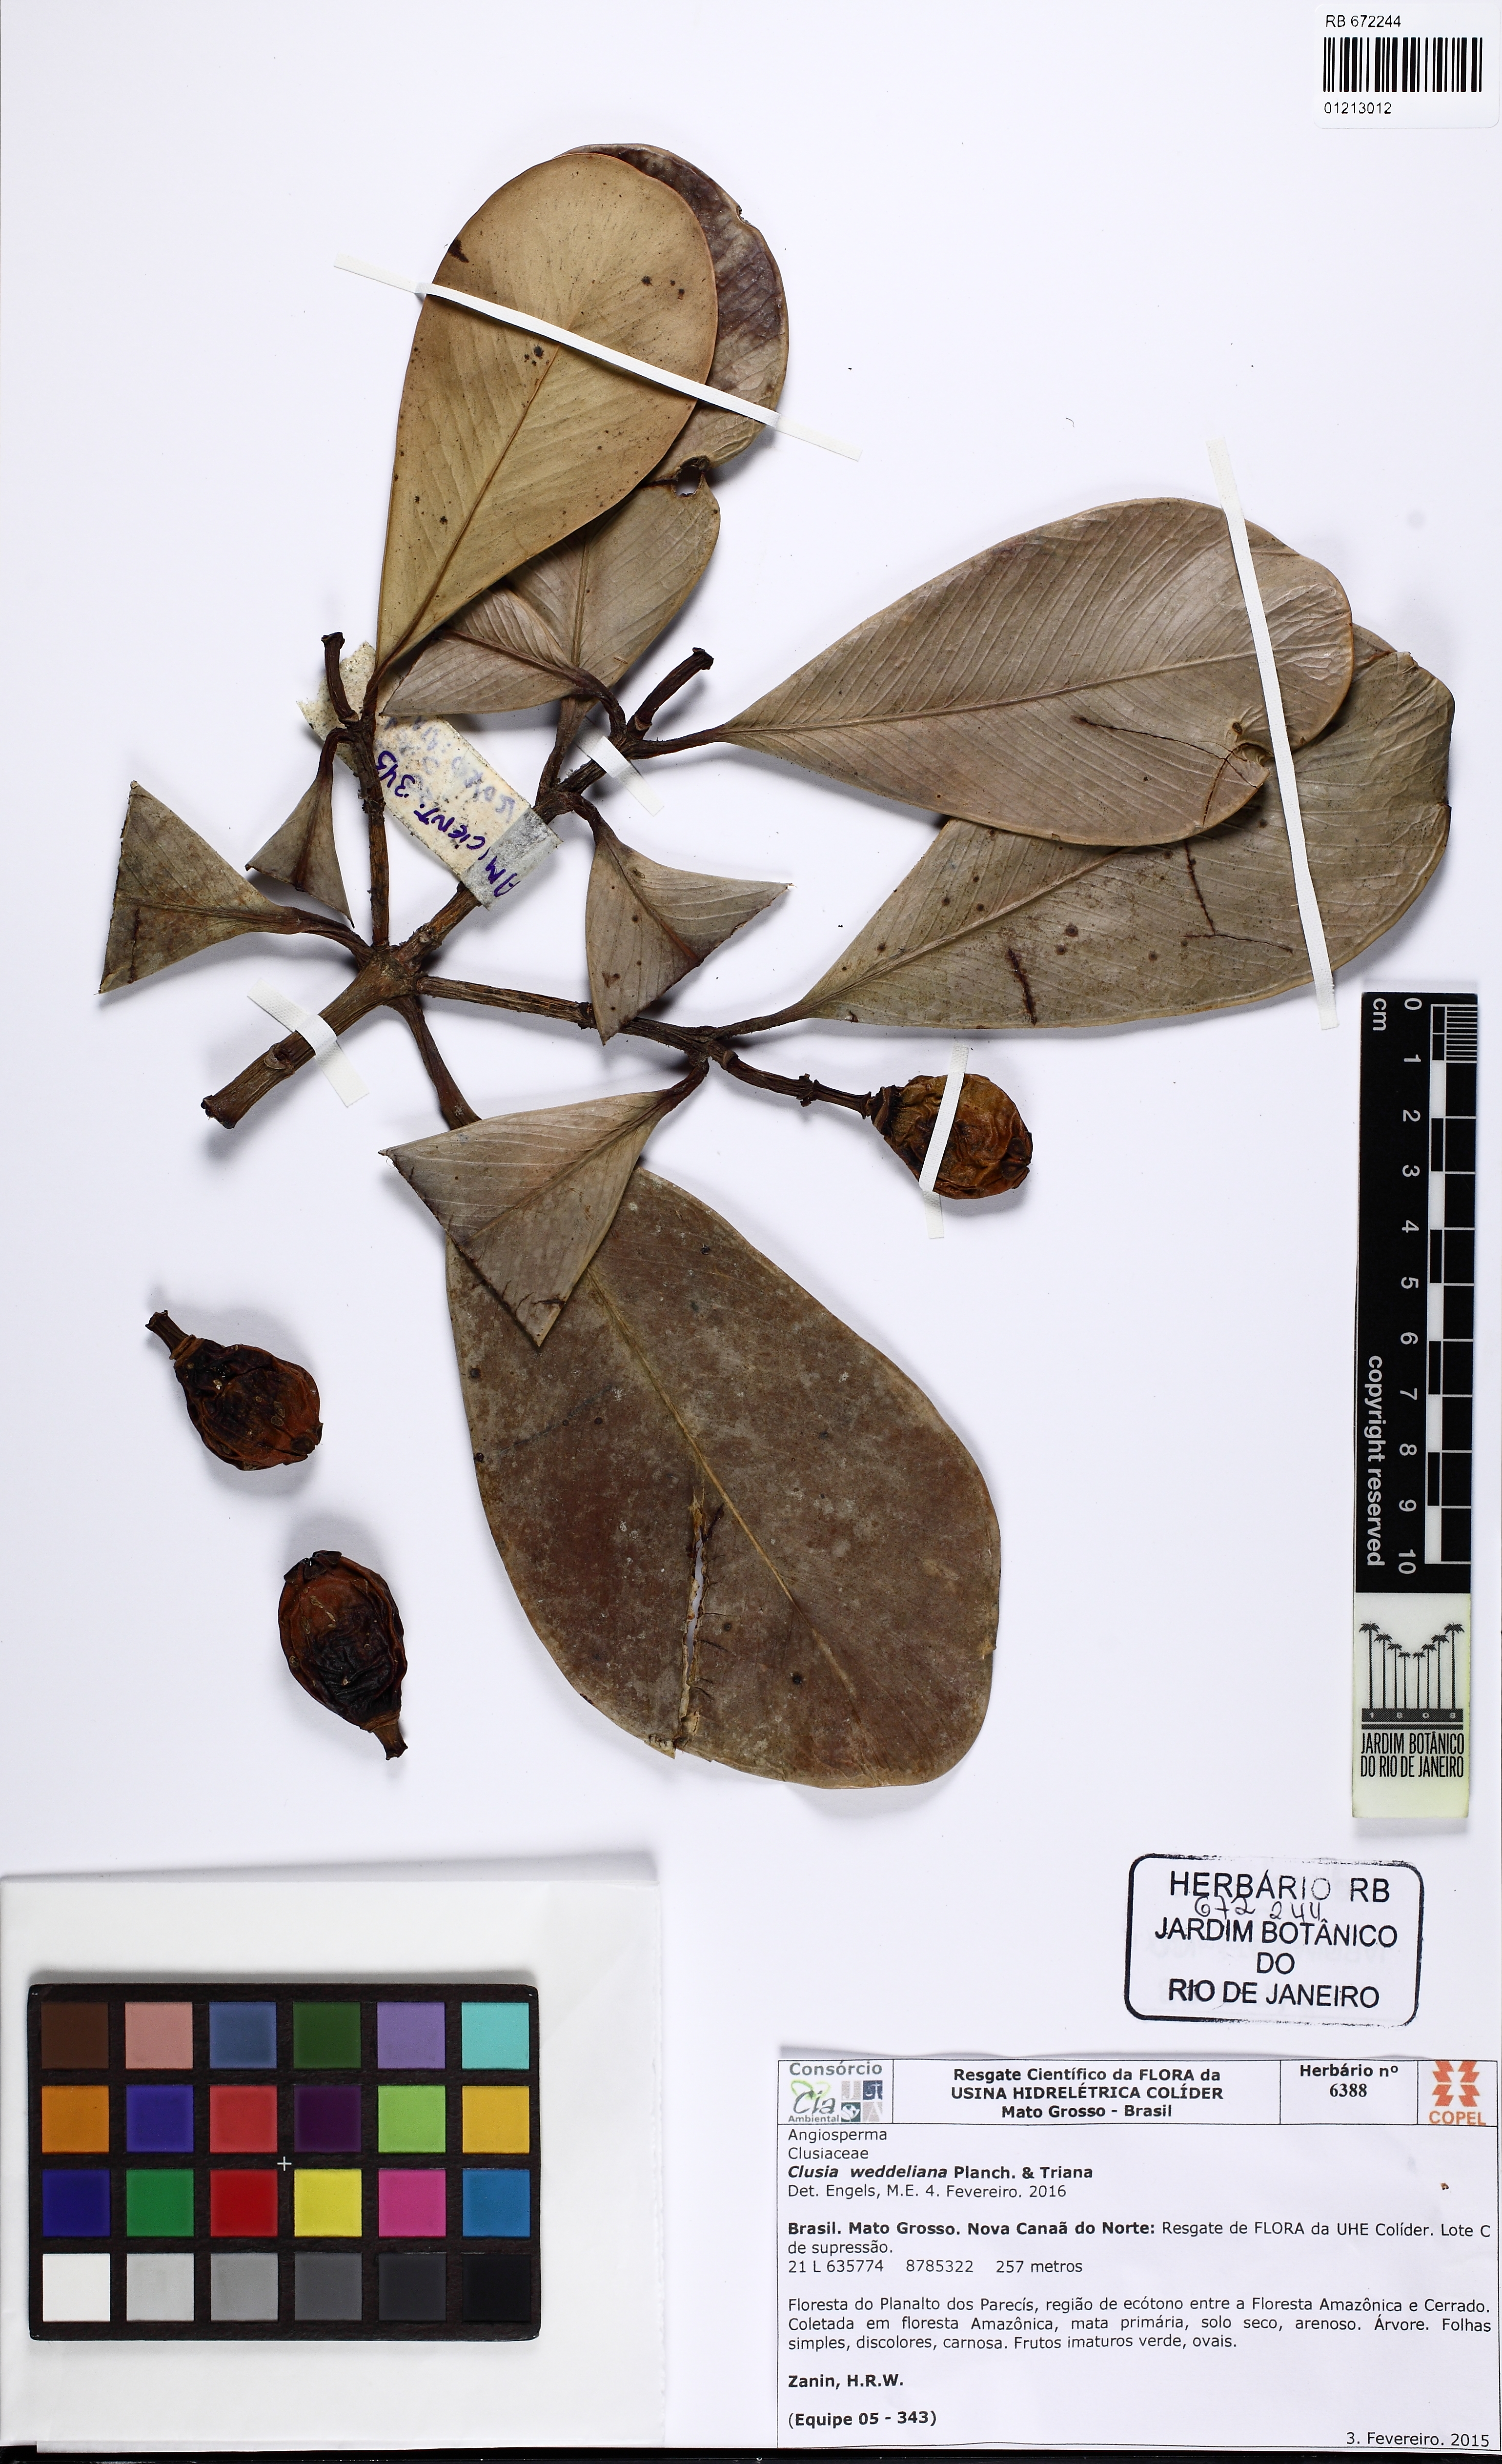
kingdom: Plantae
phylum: Tracheophyta
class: Magnoliopsida
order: Malpighiales
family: Clusiaceae
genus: Clusia
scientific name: Clusia weddelliana
